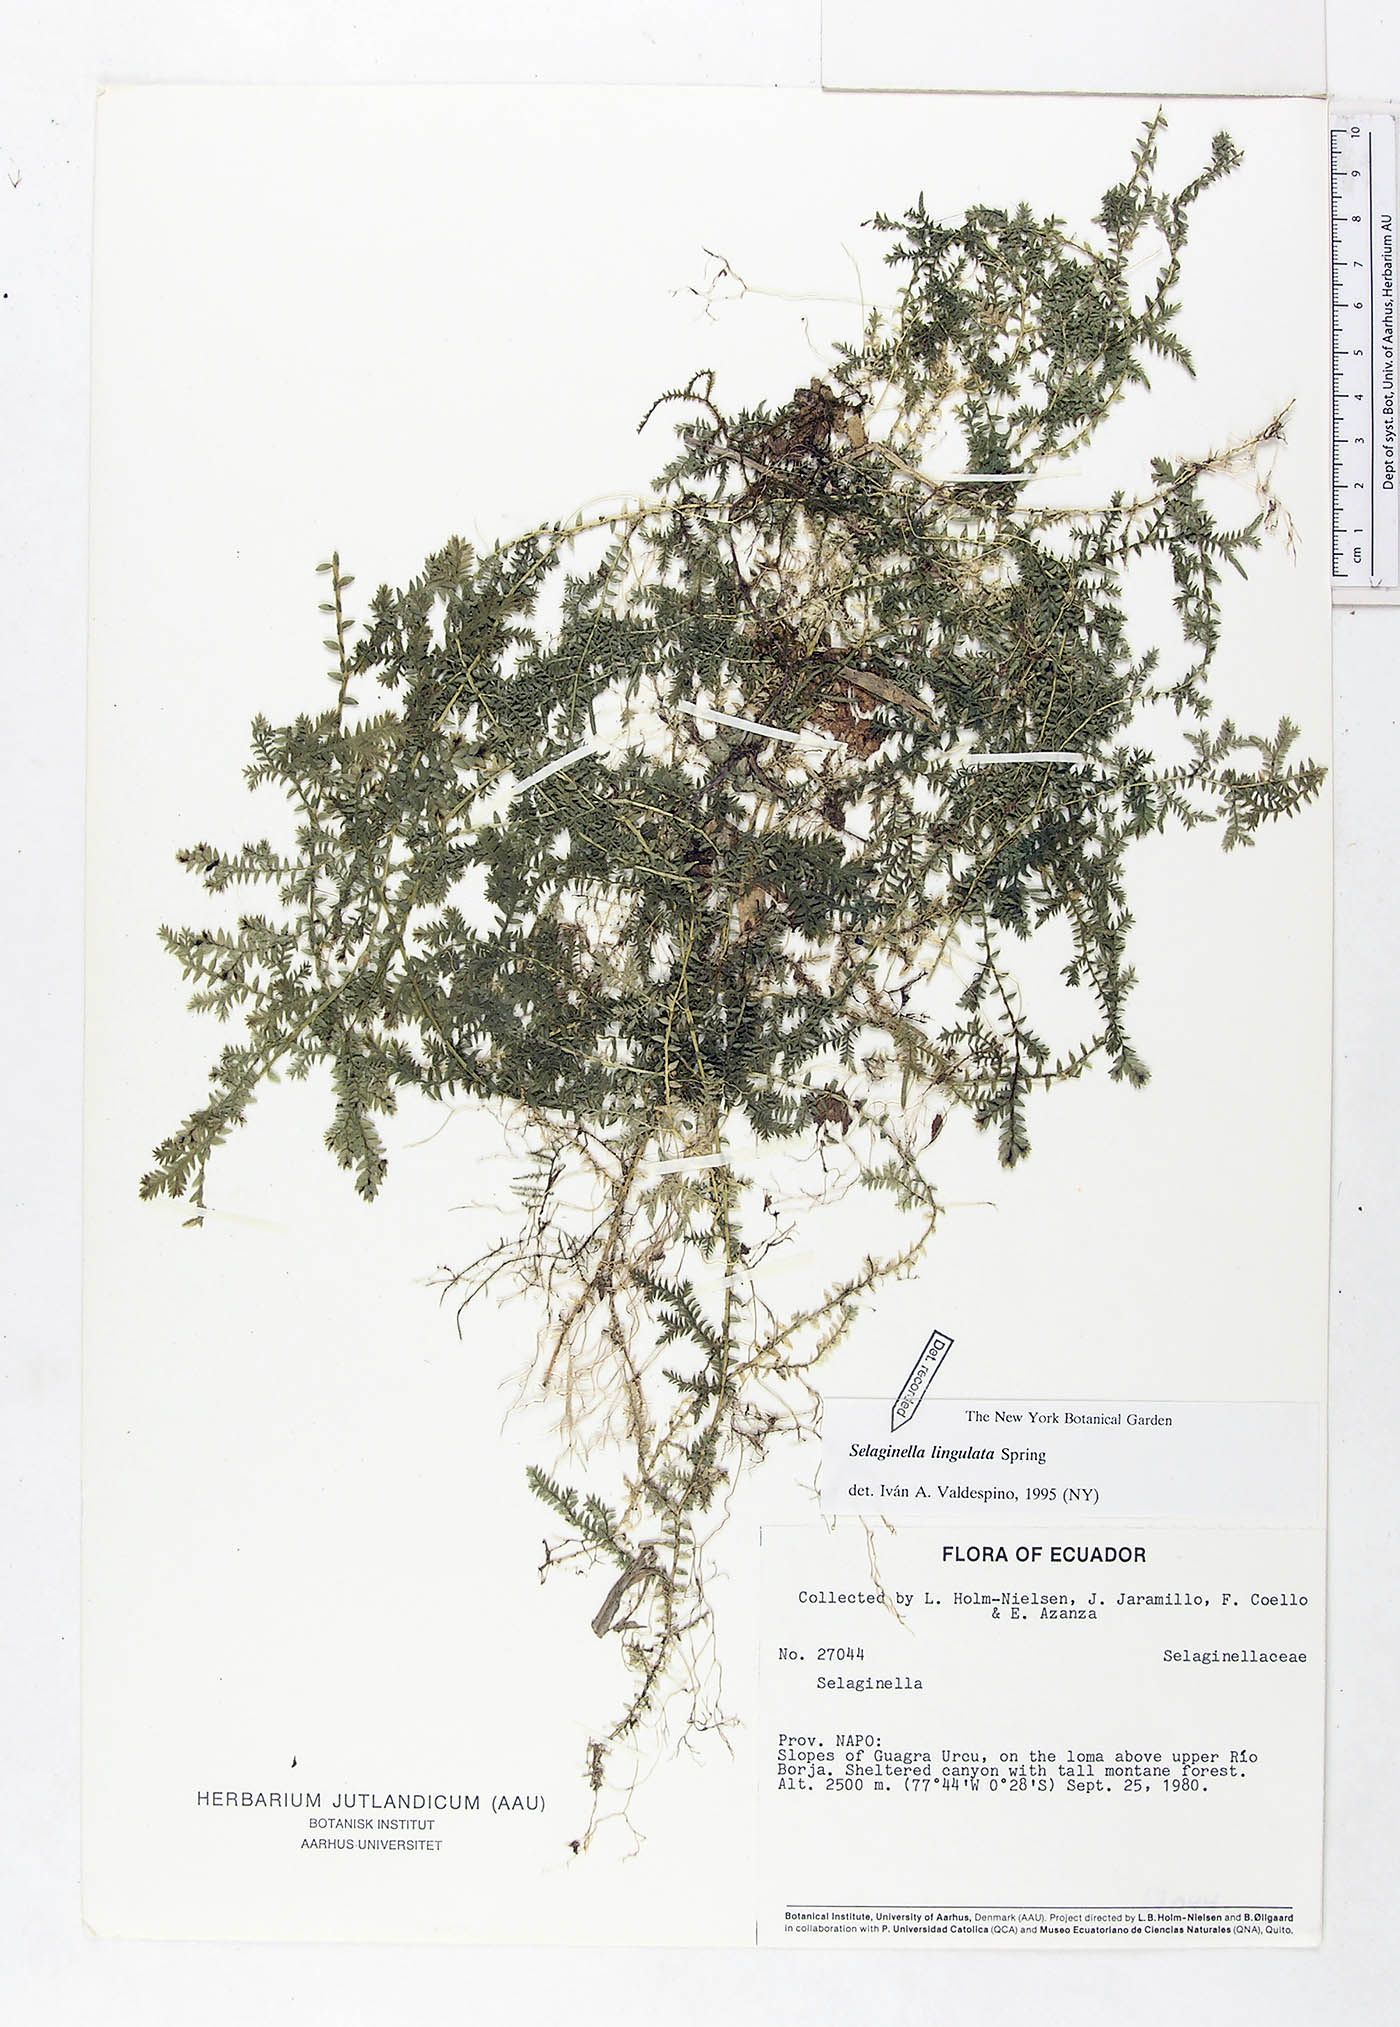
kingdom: Plantae
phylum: Tracheophyta
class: Lycopodiopsida
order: Selaginellales
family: Selaginellaceae
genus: Selaginella
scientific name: Selaginella lingulata
